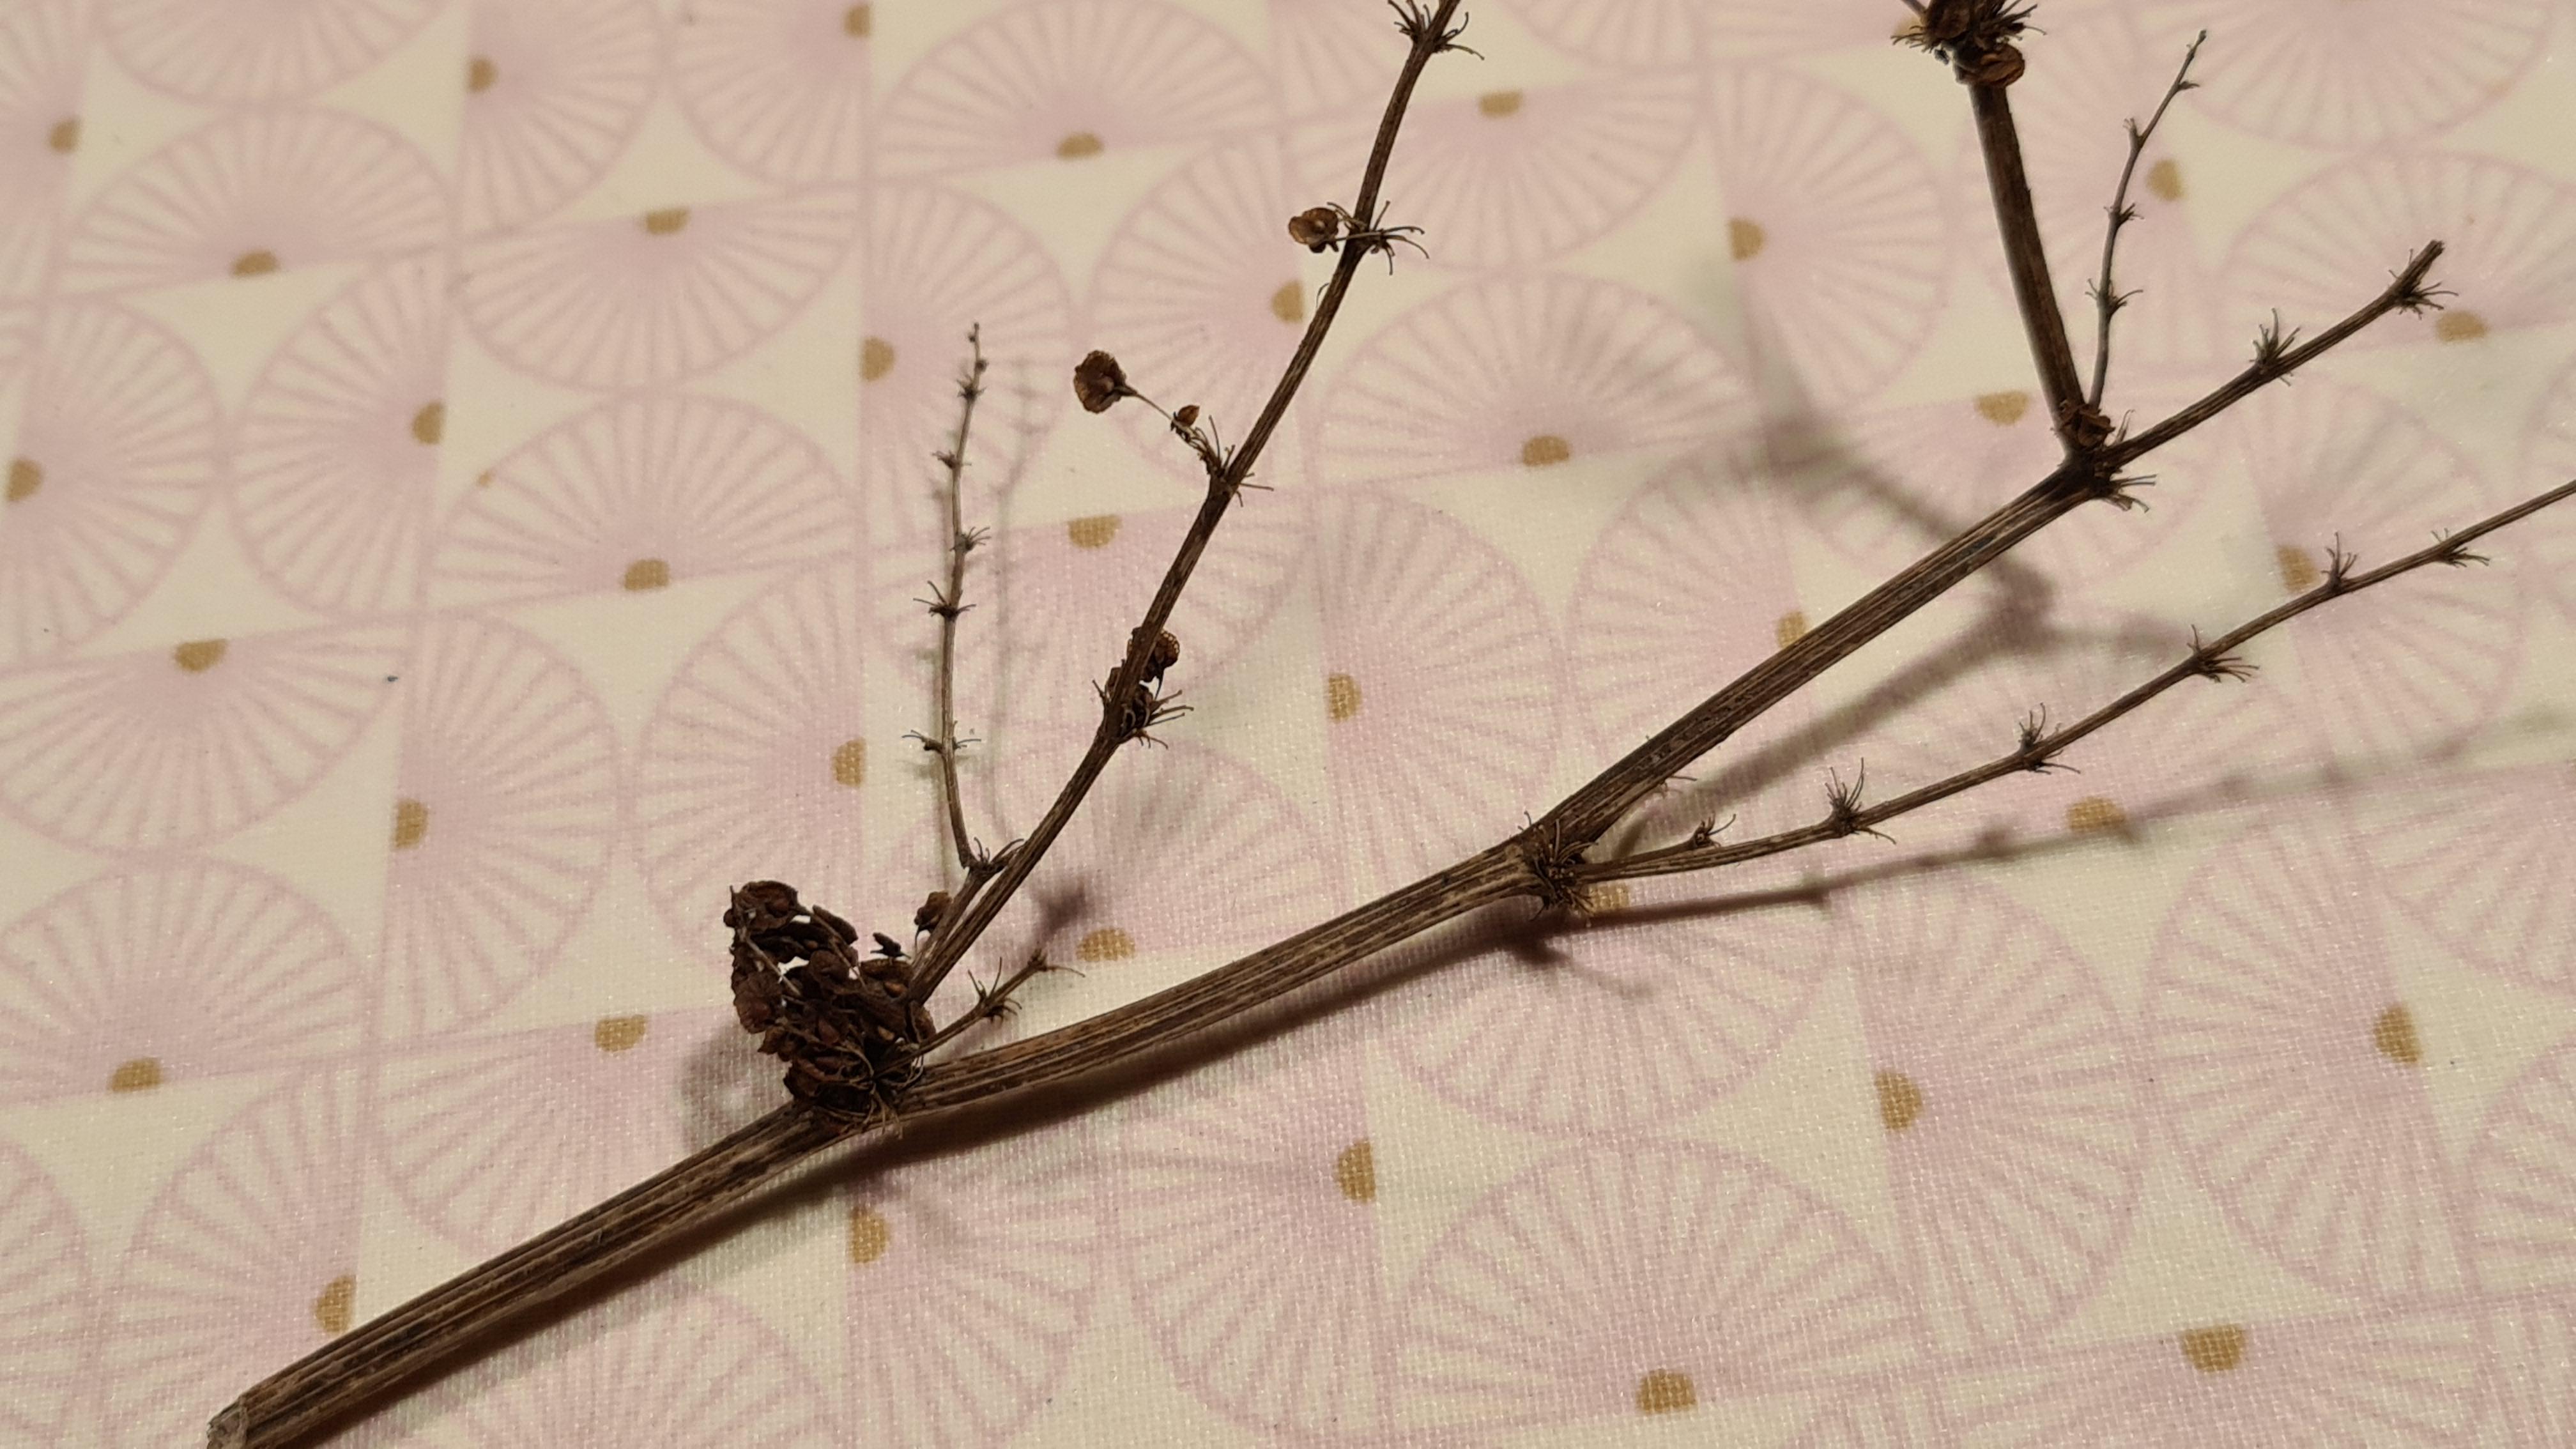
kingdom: Fungi
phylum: Basidiomycota
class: Agaricomycetes
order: Agaricales
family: Niaceae
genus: Lachnella
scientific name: Lachnella alboviolascens
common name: grå frynserede
